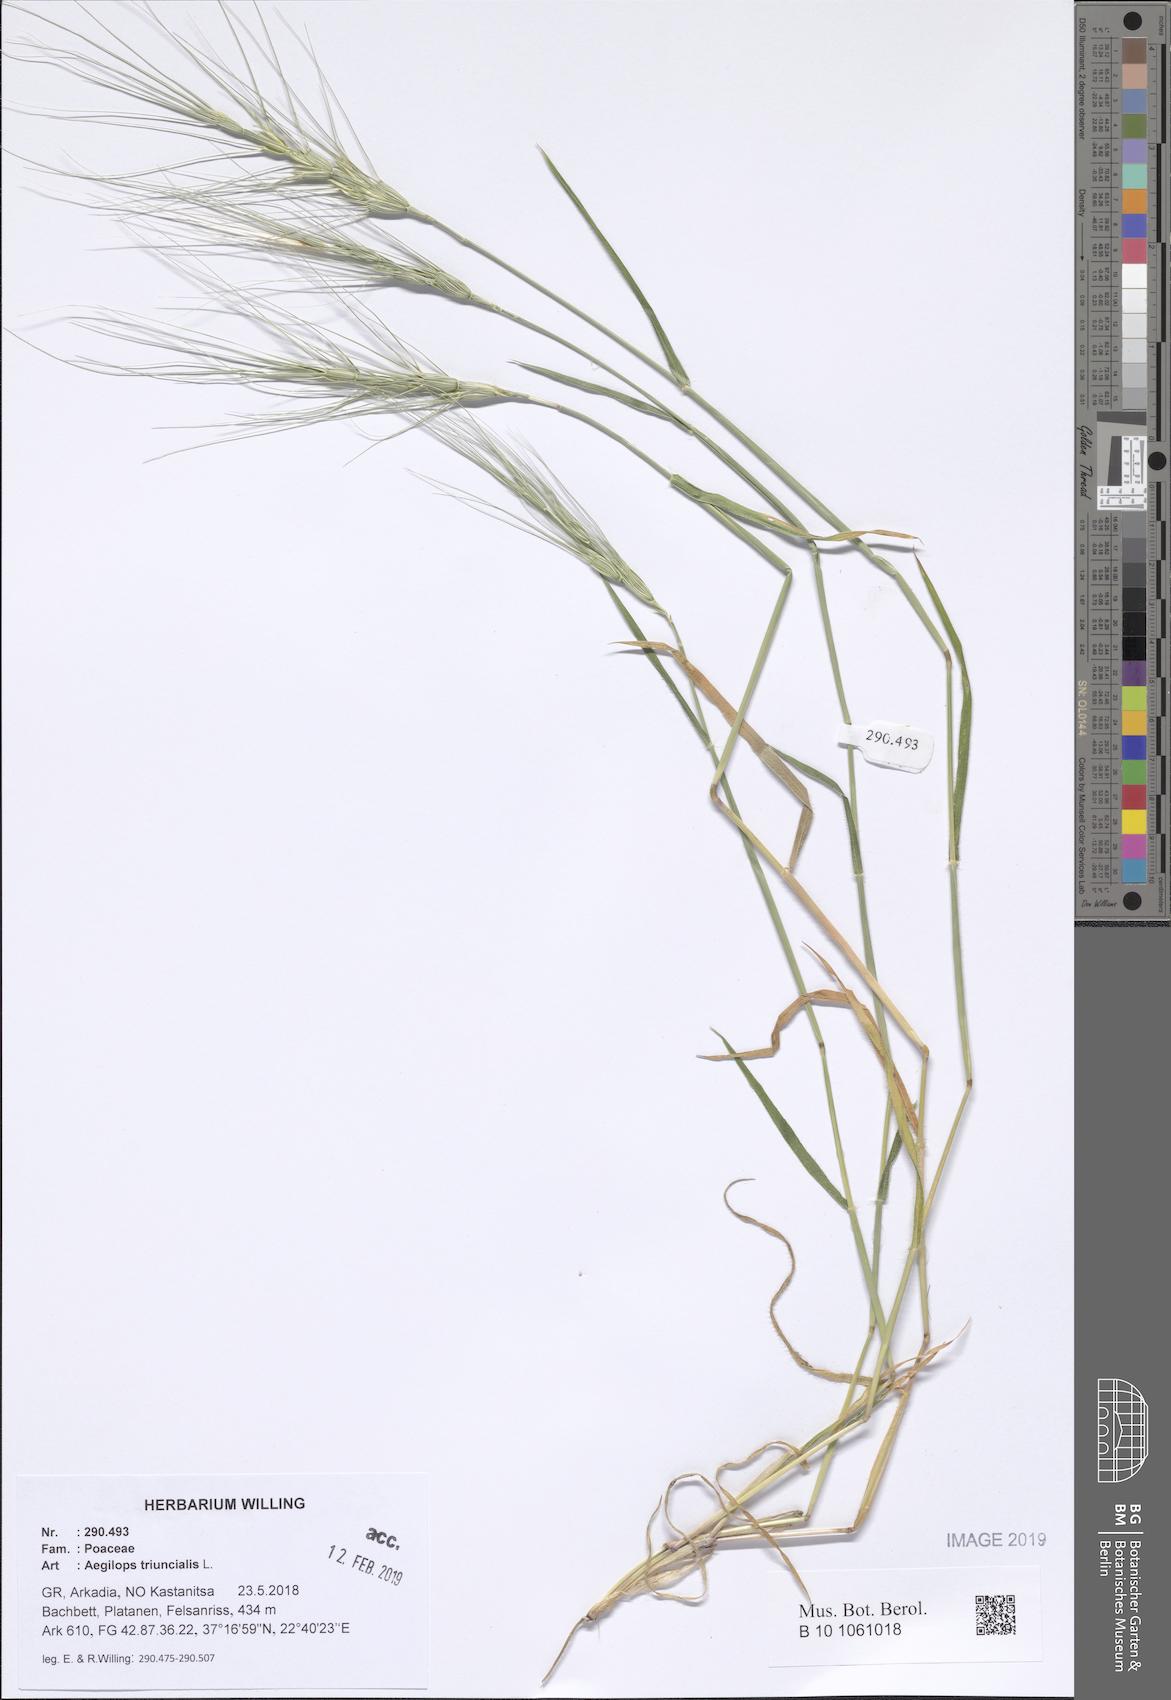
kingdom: Plantae
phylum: Tracheophyta
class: Liliopsida
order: Poales
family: Poaceae
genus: Aegilops
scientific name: Aegilops triuncialis
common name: Barb goat grass
